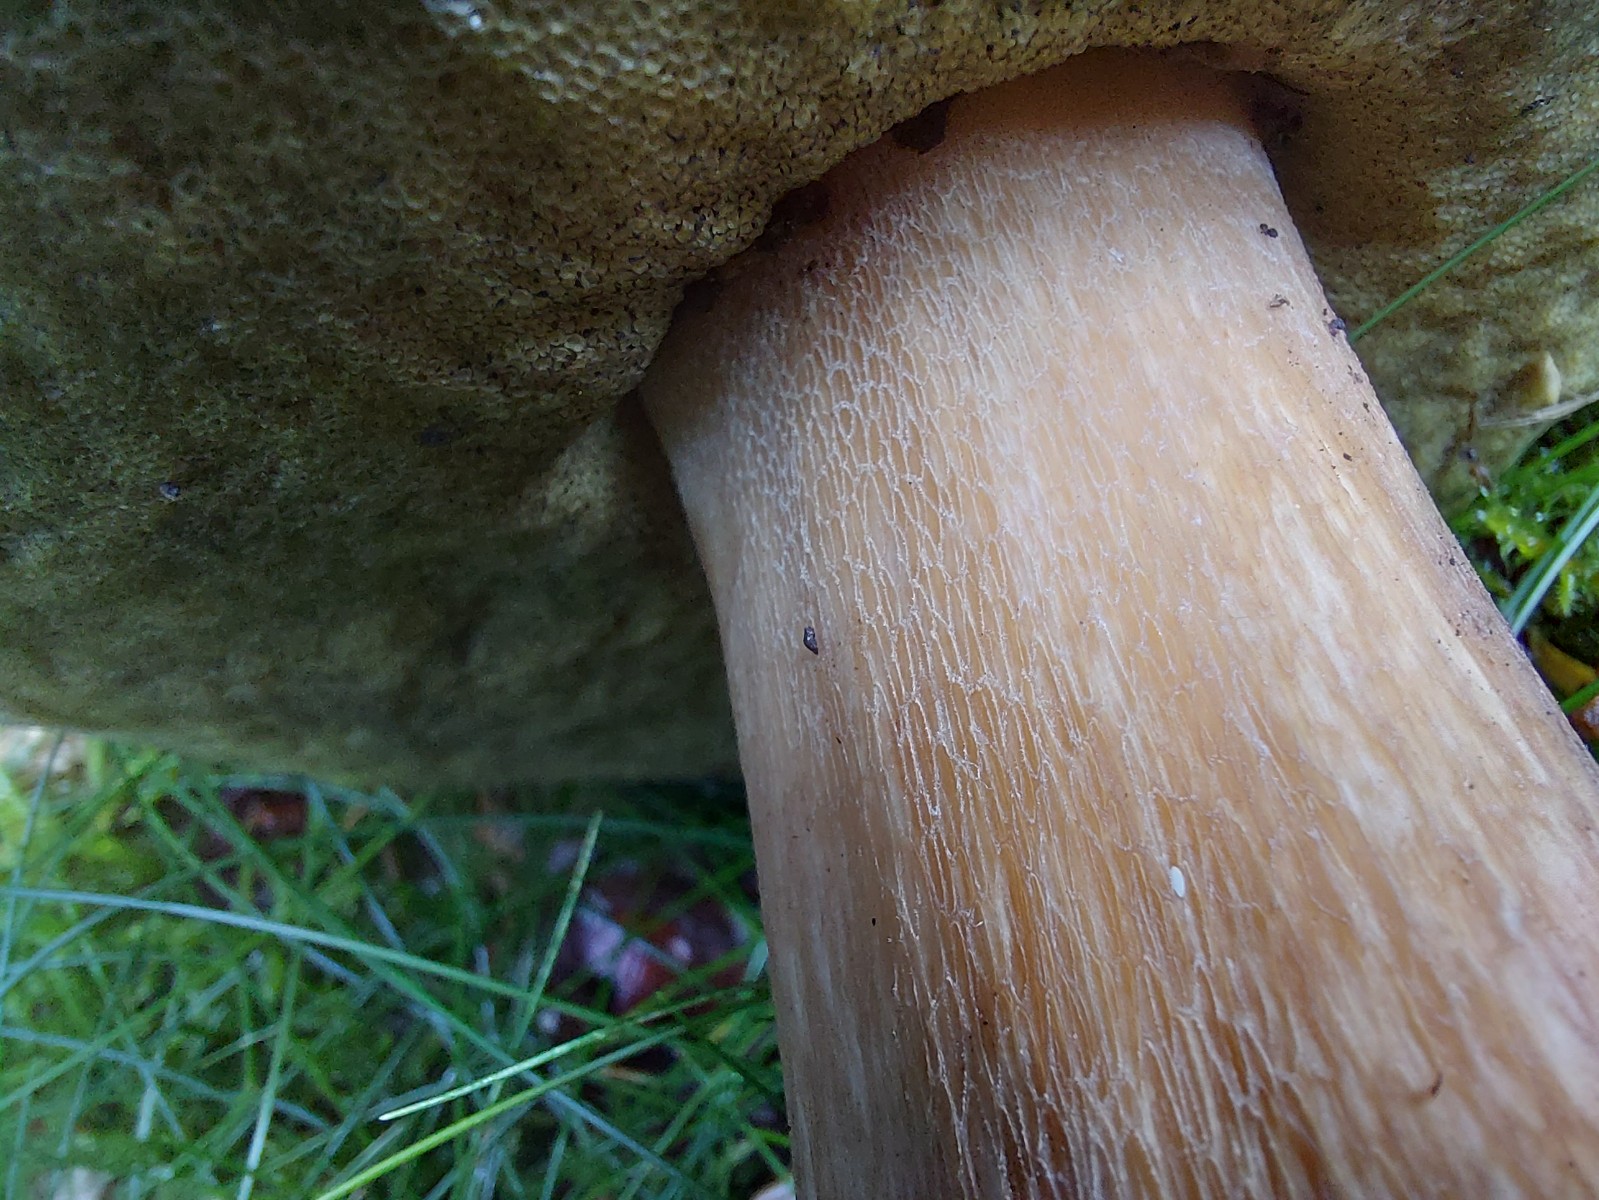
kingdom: Fungi
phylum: Basidiomycota
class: Agaricomycetes
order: Boletales
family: Boletaceae
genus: Boletus
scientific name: Boletus edulis
